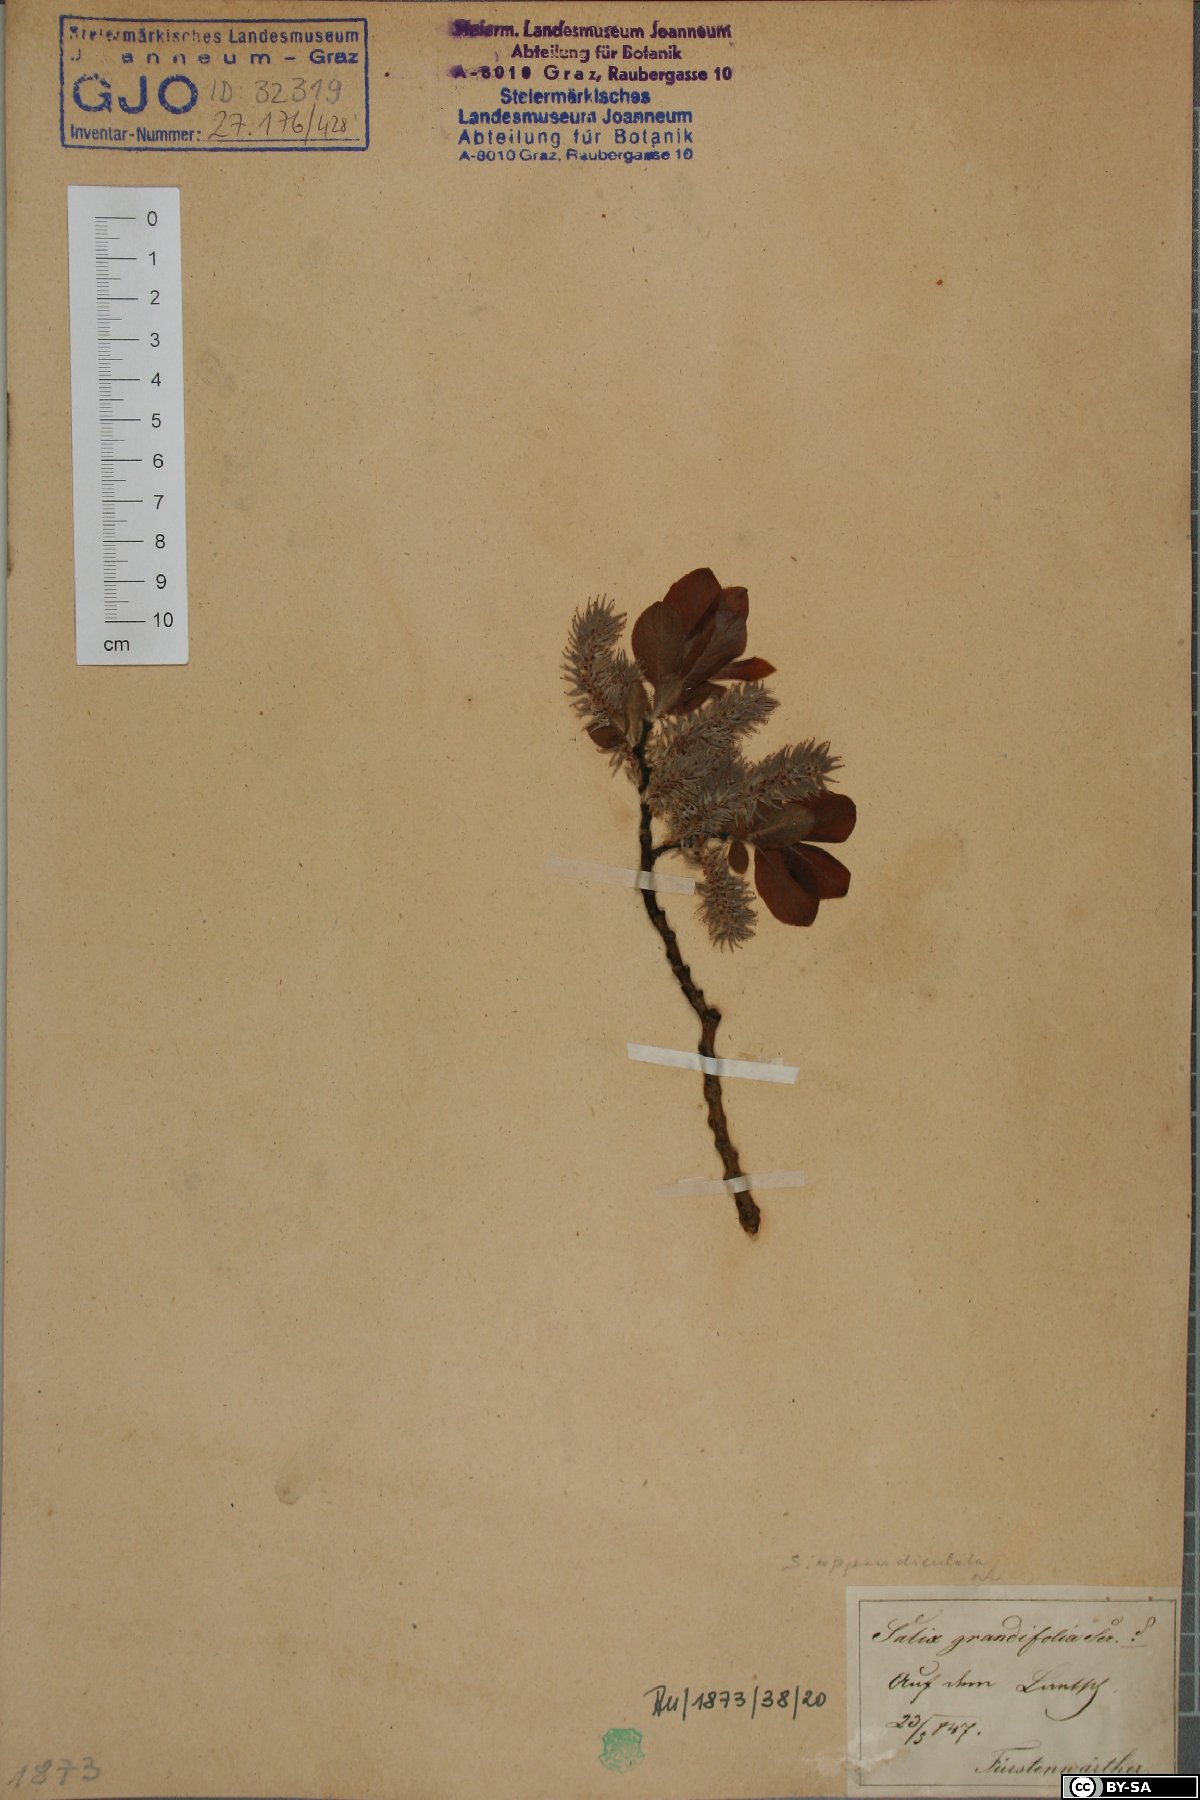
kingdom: Plantae
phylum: Tracheophyta
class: Magnoliopsida
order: Malpighiales
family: Salicaceae
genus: Salix
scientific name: Salix appendiculata
